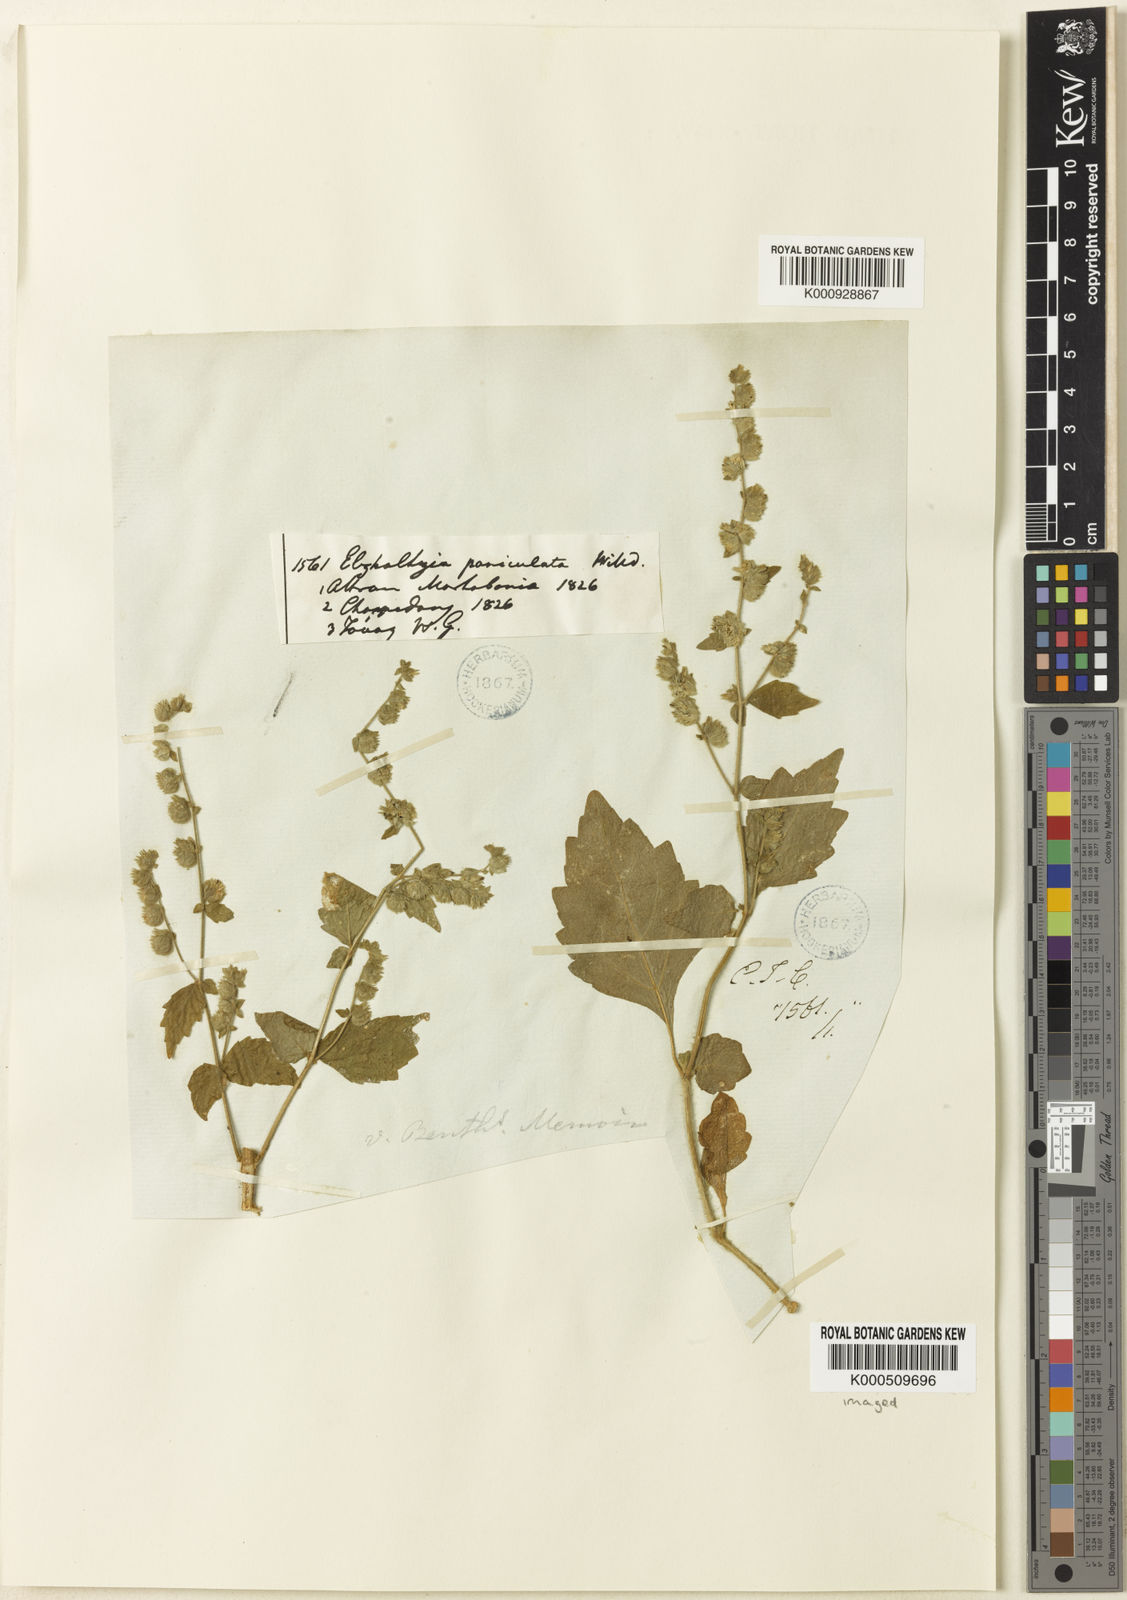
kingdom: Plantae
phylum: Tracheophyta
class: Magnoliopsida
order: Lamiales
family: Lamiaceae
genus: Pogostemon
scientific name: Pogostemon paniculatus
